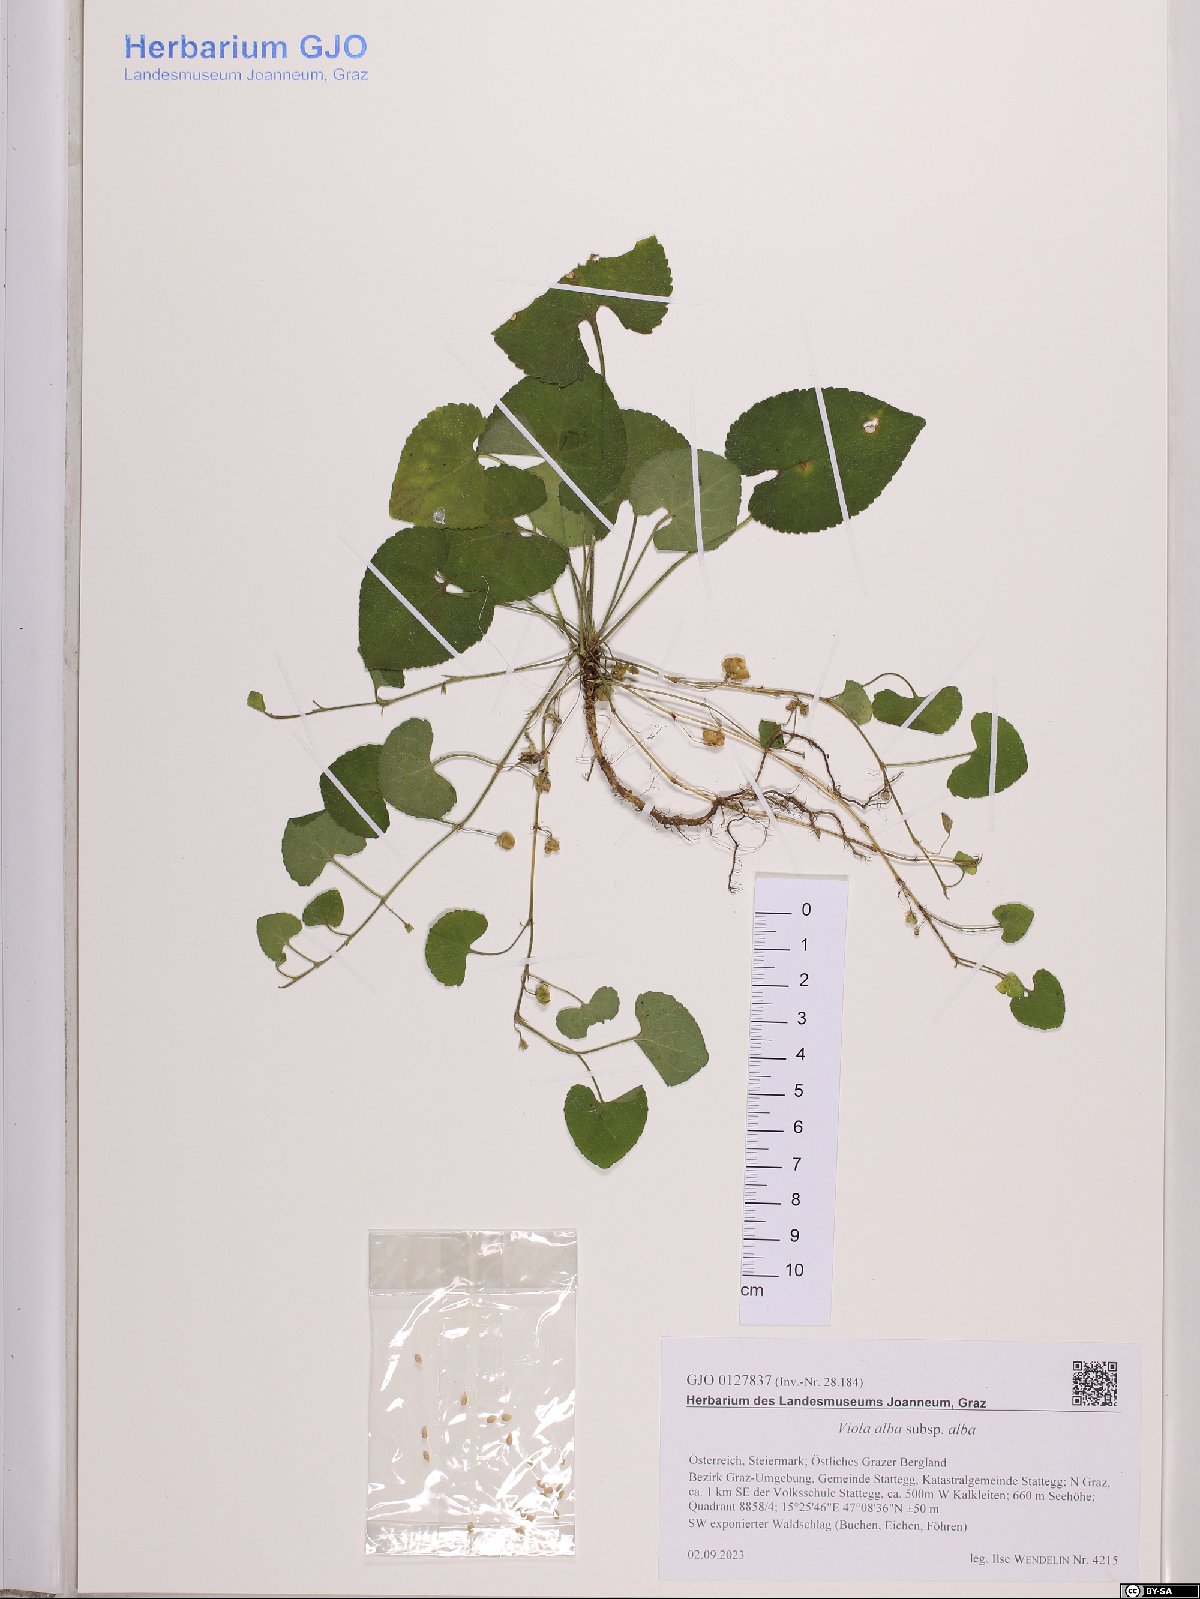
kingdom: Plantae
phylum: Tracheophyta
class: Magnoliopsida
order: Malpighiales
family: Violaceae
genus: Viola
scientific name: Viola alba
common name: White violet
